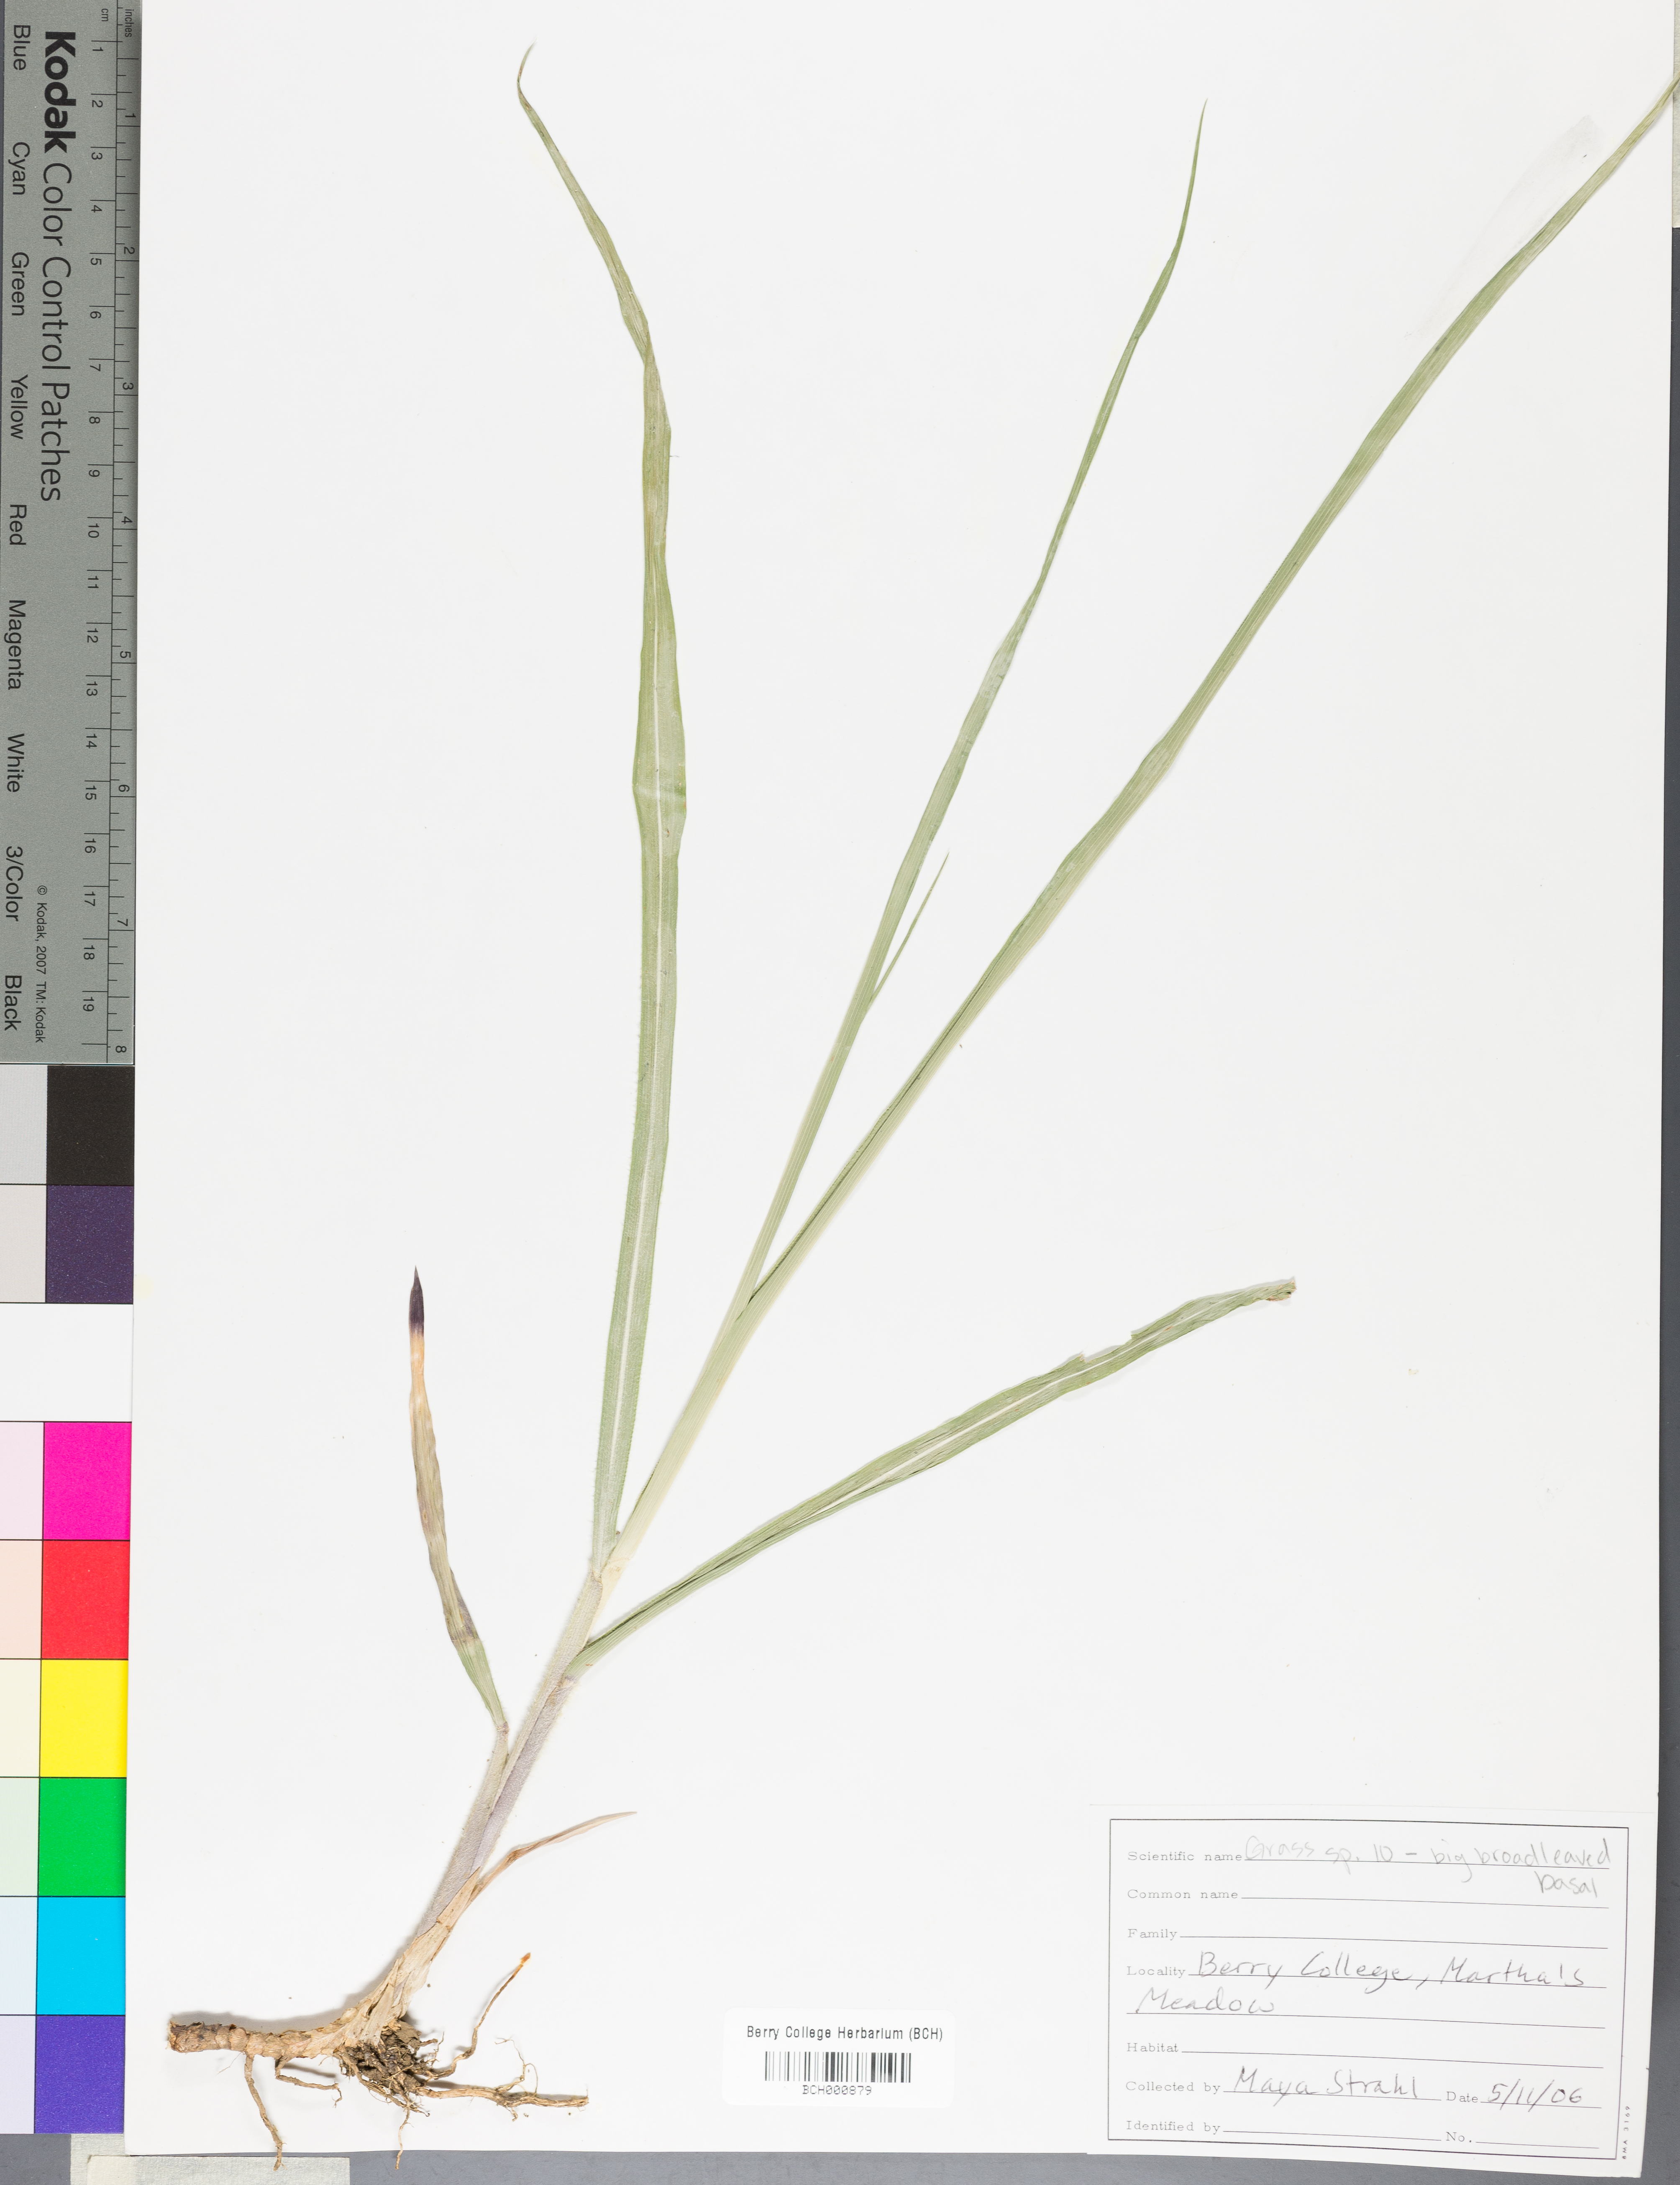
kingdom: Plantae
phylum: Tracheophyta
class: Magnoliopsida
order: Lamiales
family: Acanthaceae
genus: Adhatoda
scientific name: Adhatoda
